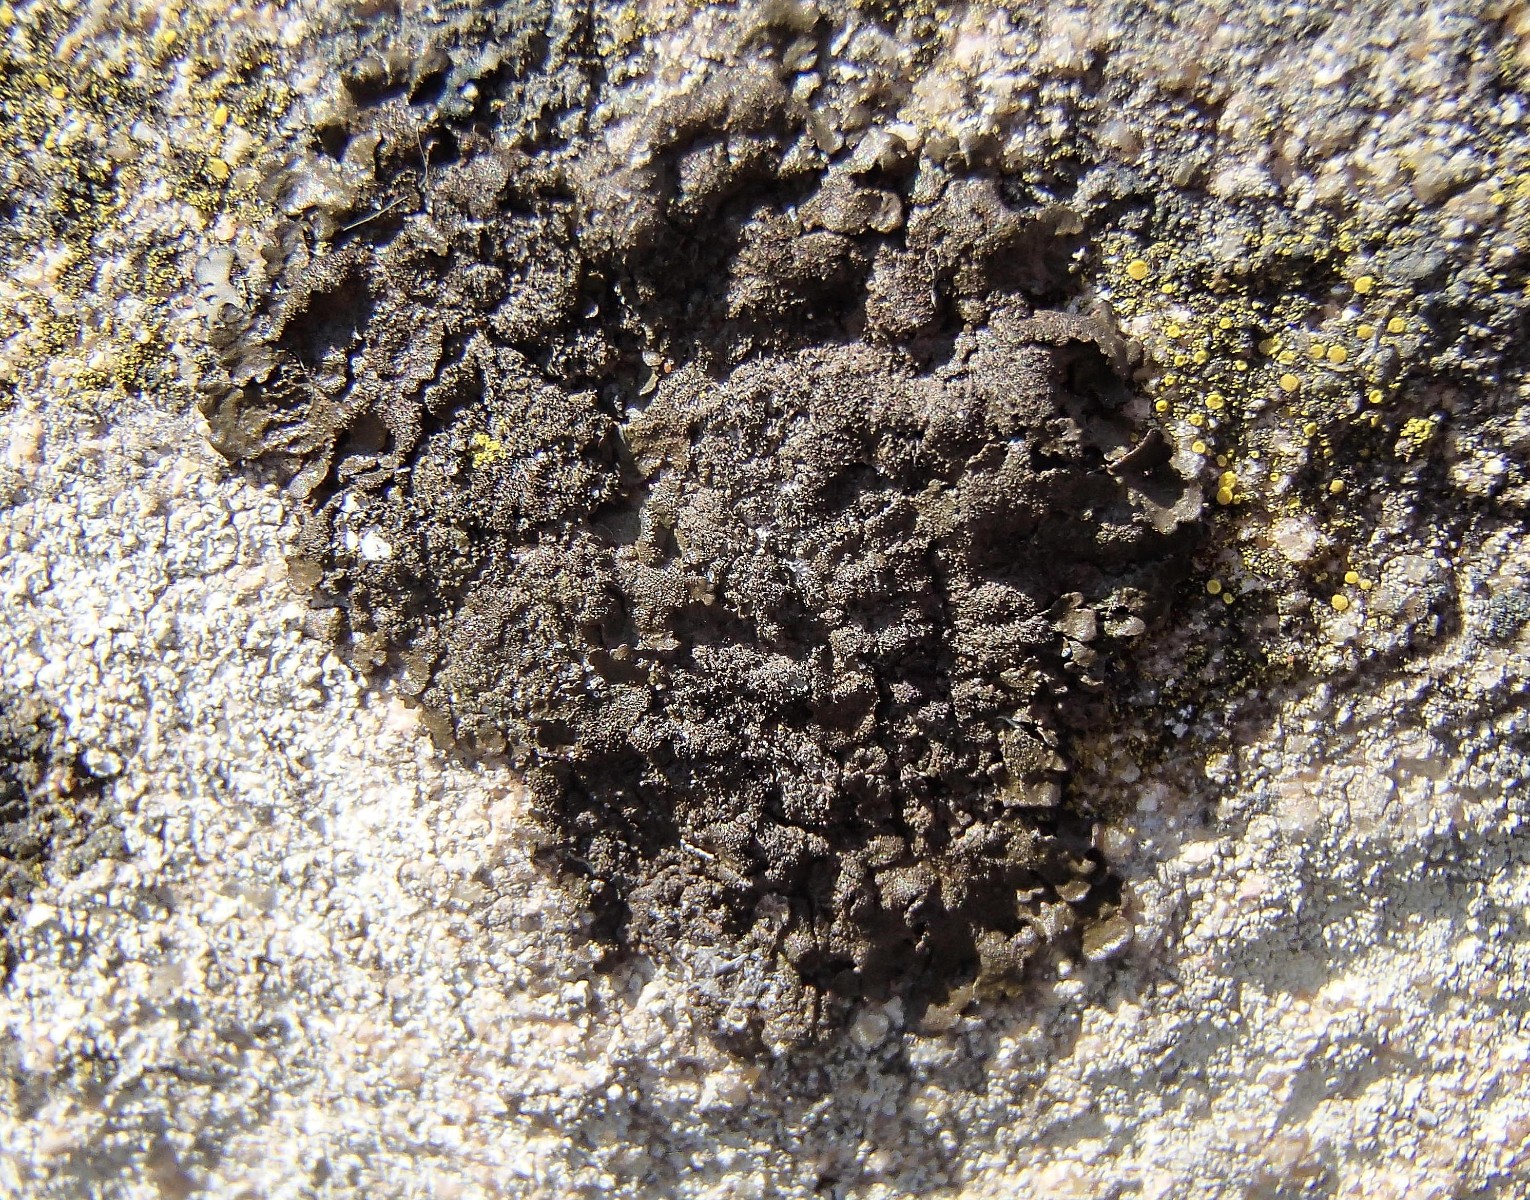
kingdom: Fungi
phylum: Ascomycota
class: Lecanoromycetes
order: Lecanorales
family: Parmeliaceae
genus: Melanelixia
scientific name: Melanelixia fuliginosa
